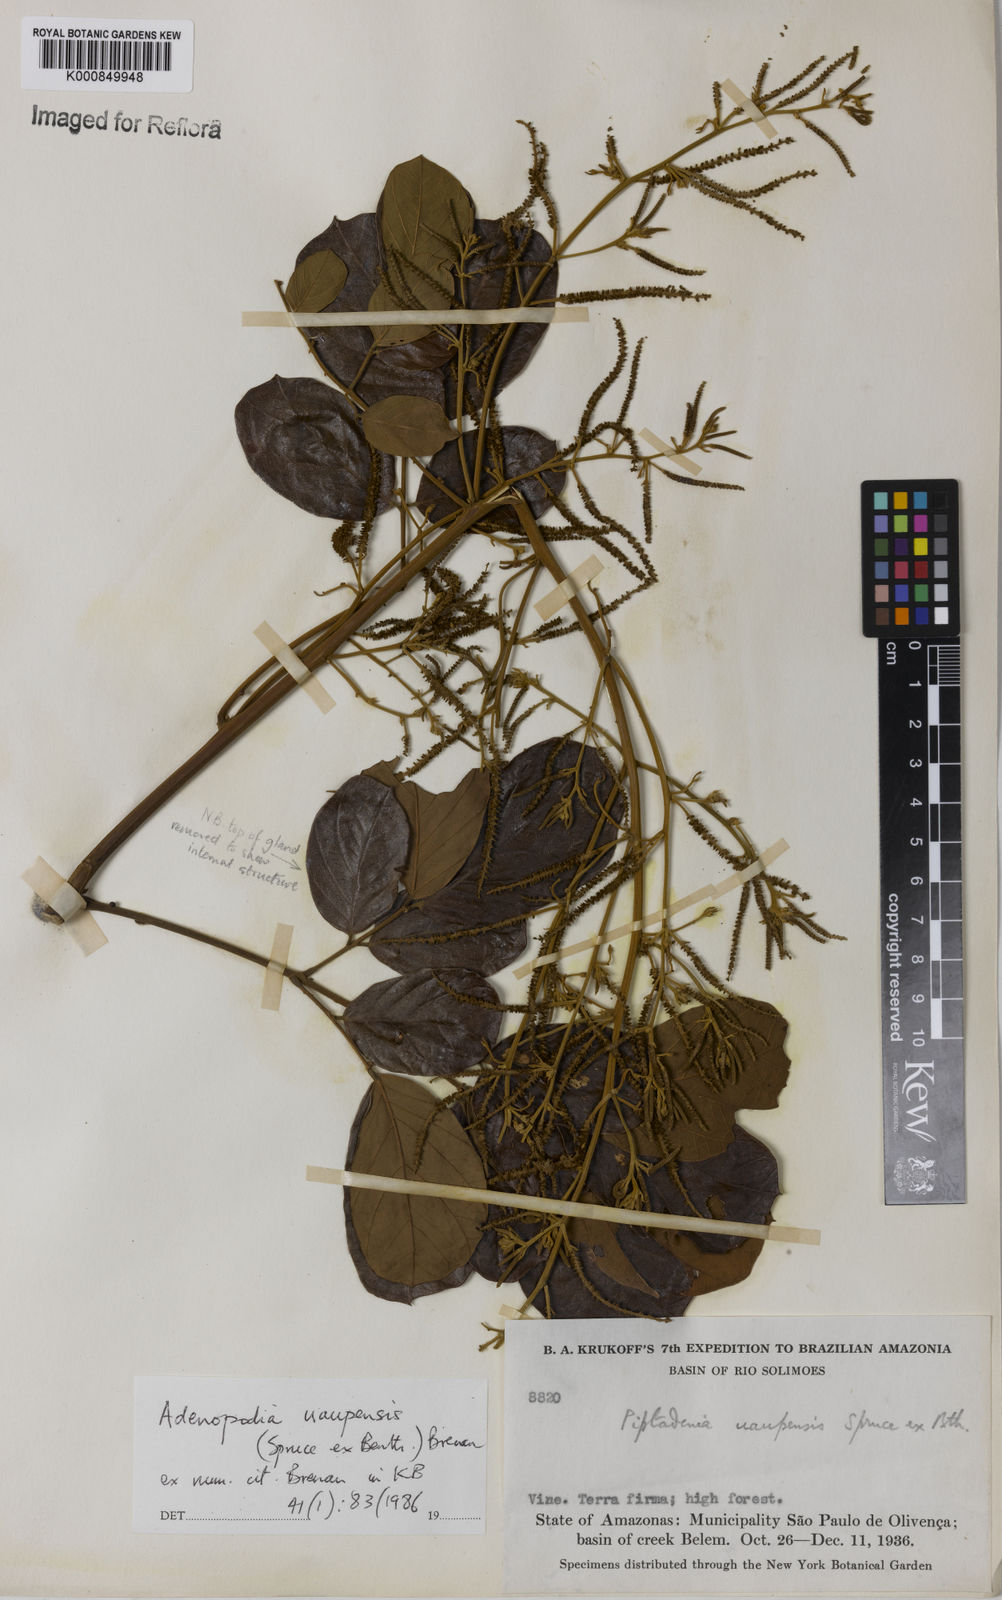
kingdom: Plantae
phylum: Tracheophyta
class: Magnoliopsida
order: Fabales
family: Fabaceae
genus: Piptadenia
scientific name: Piptadenia
